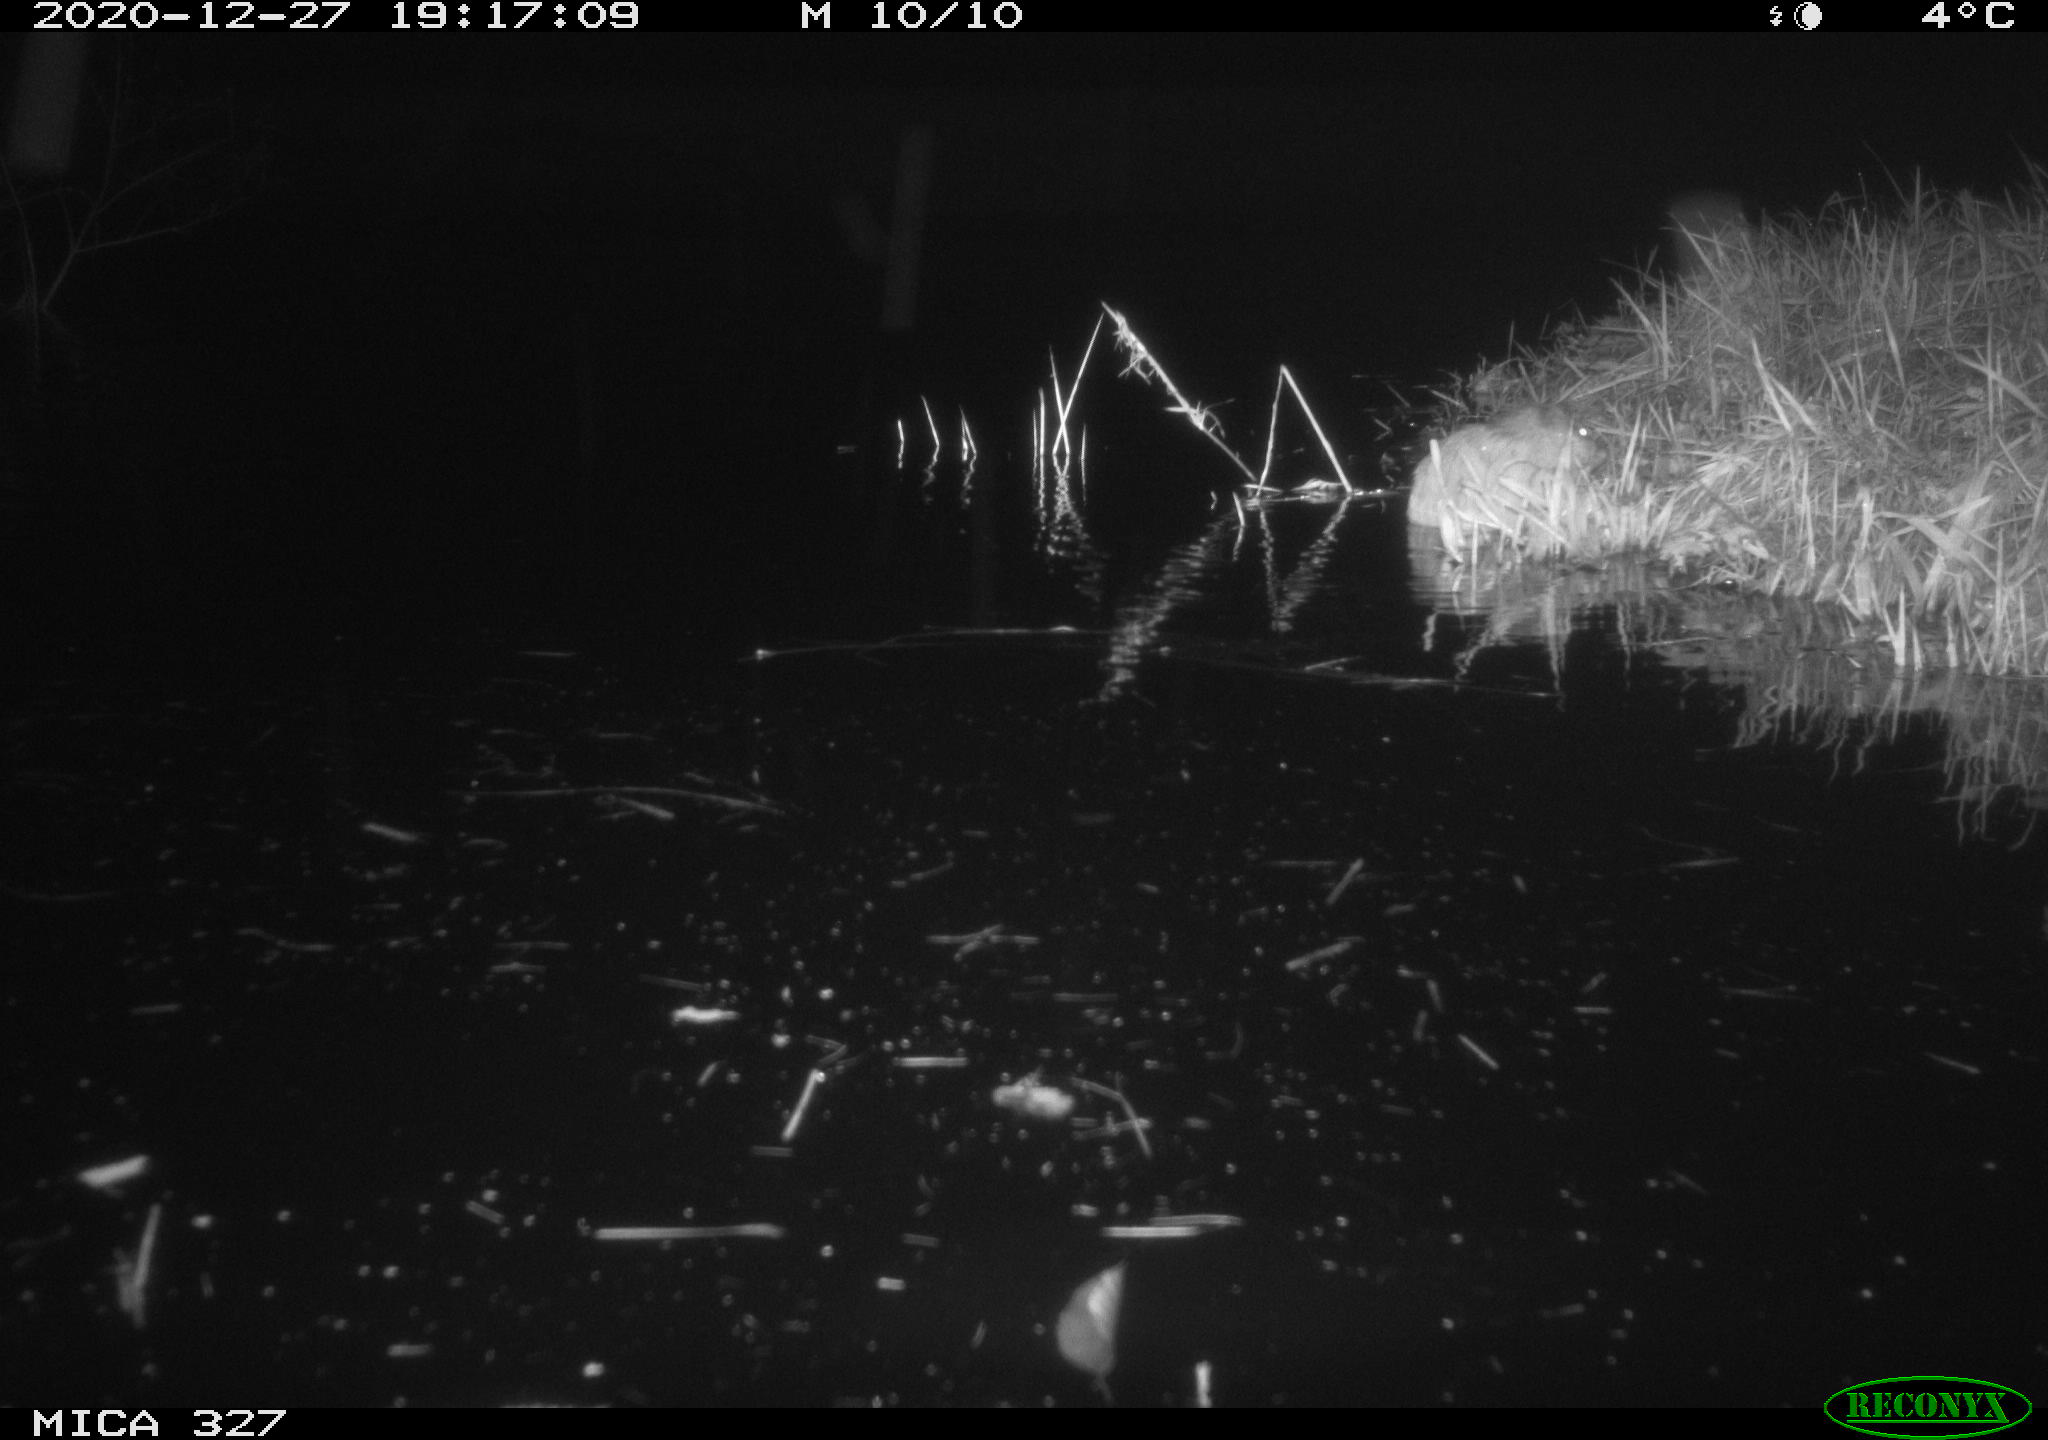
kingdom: Animalia
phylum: Chordata
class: Mammalia
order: Rodentia
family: Cricetidae
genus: Ondatra
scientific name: Ondatra zibethicus
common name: Muskrat
